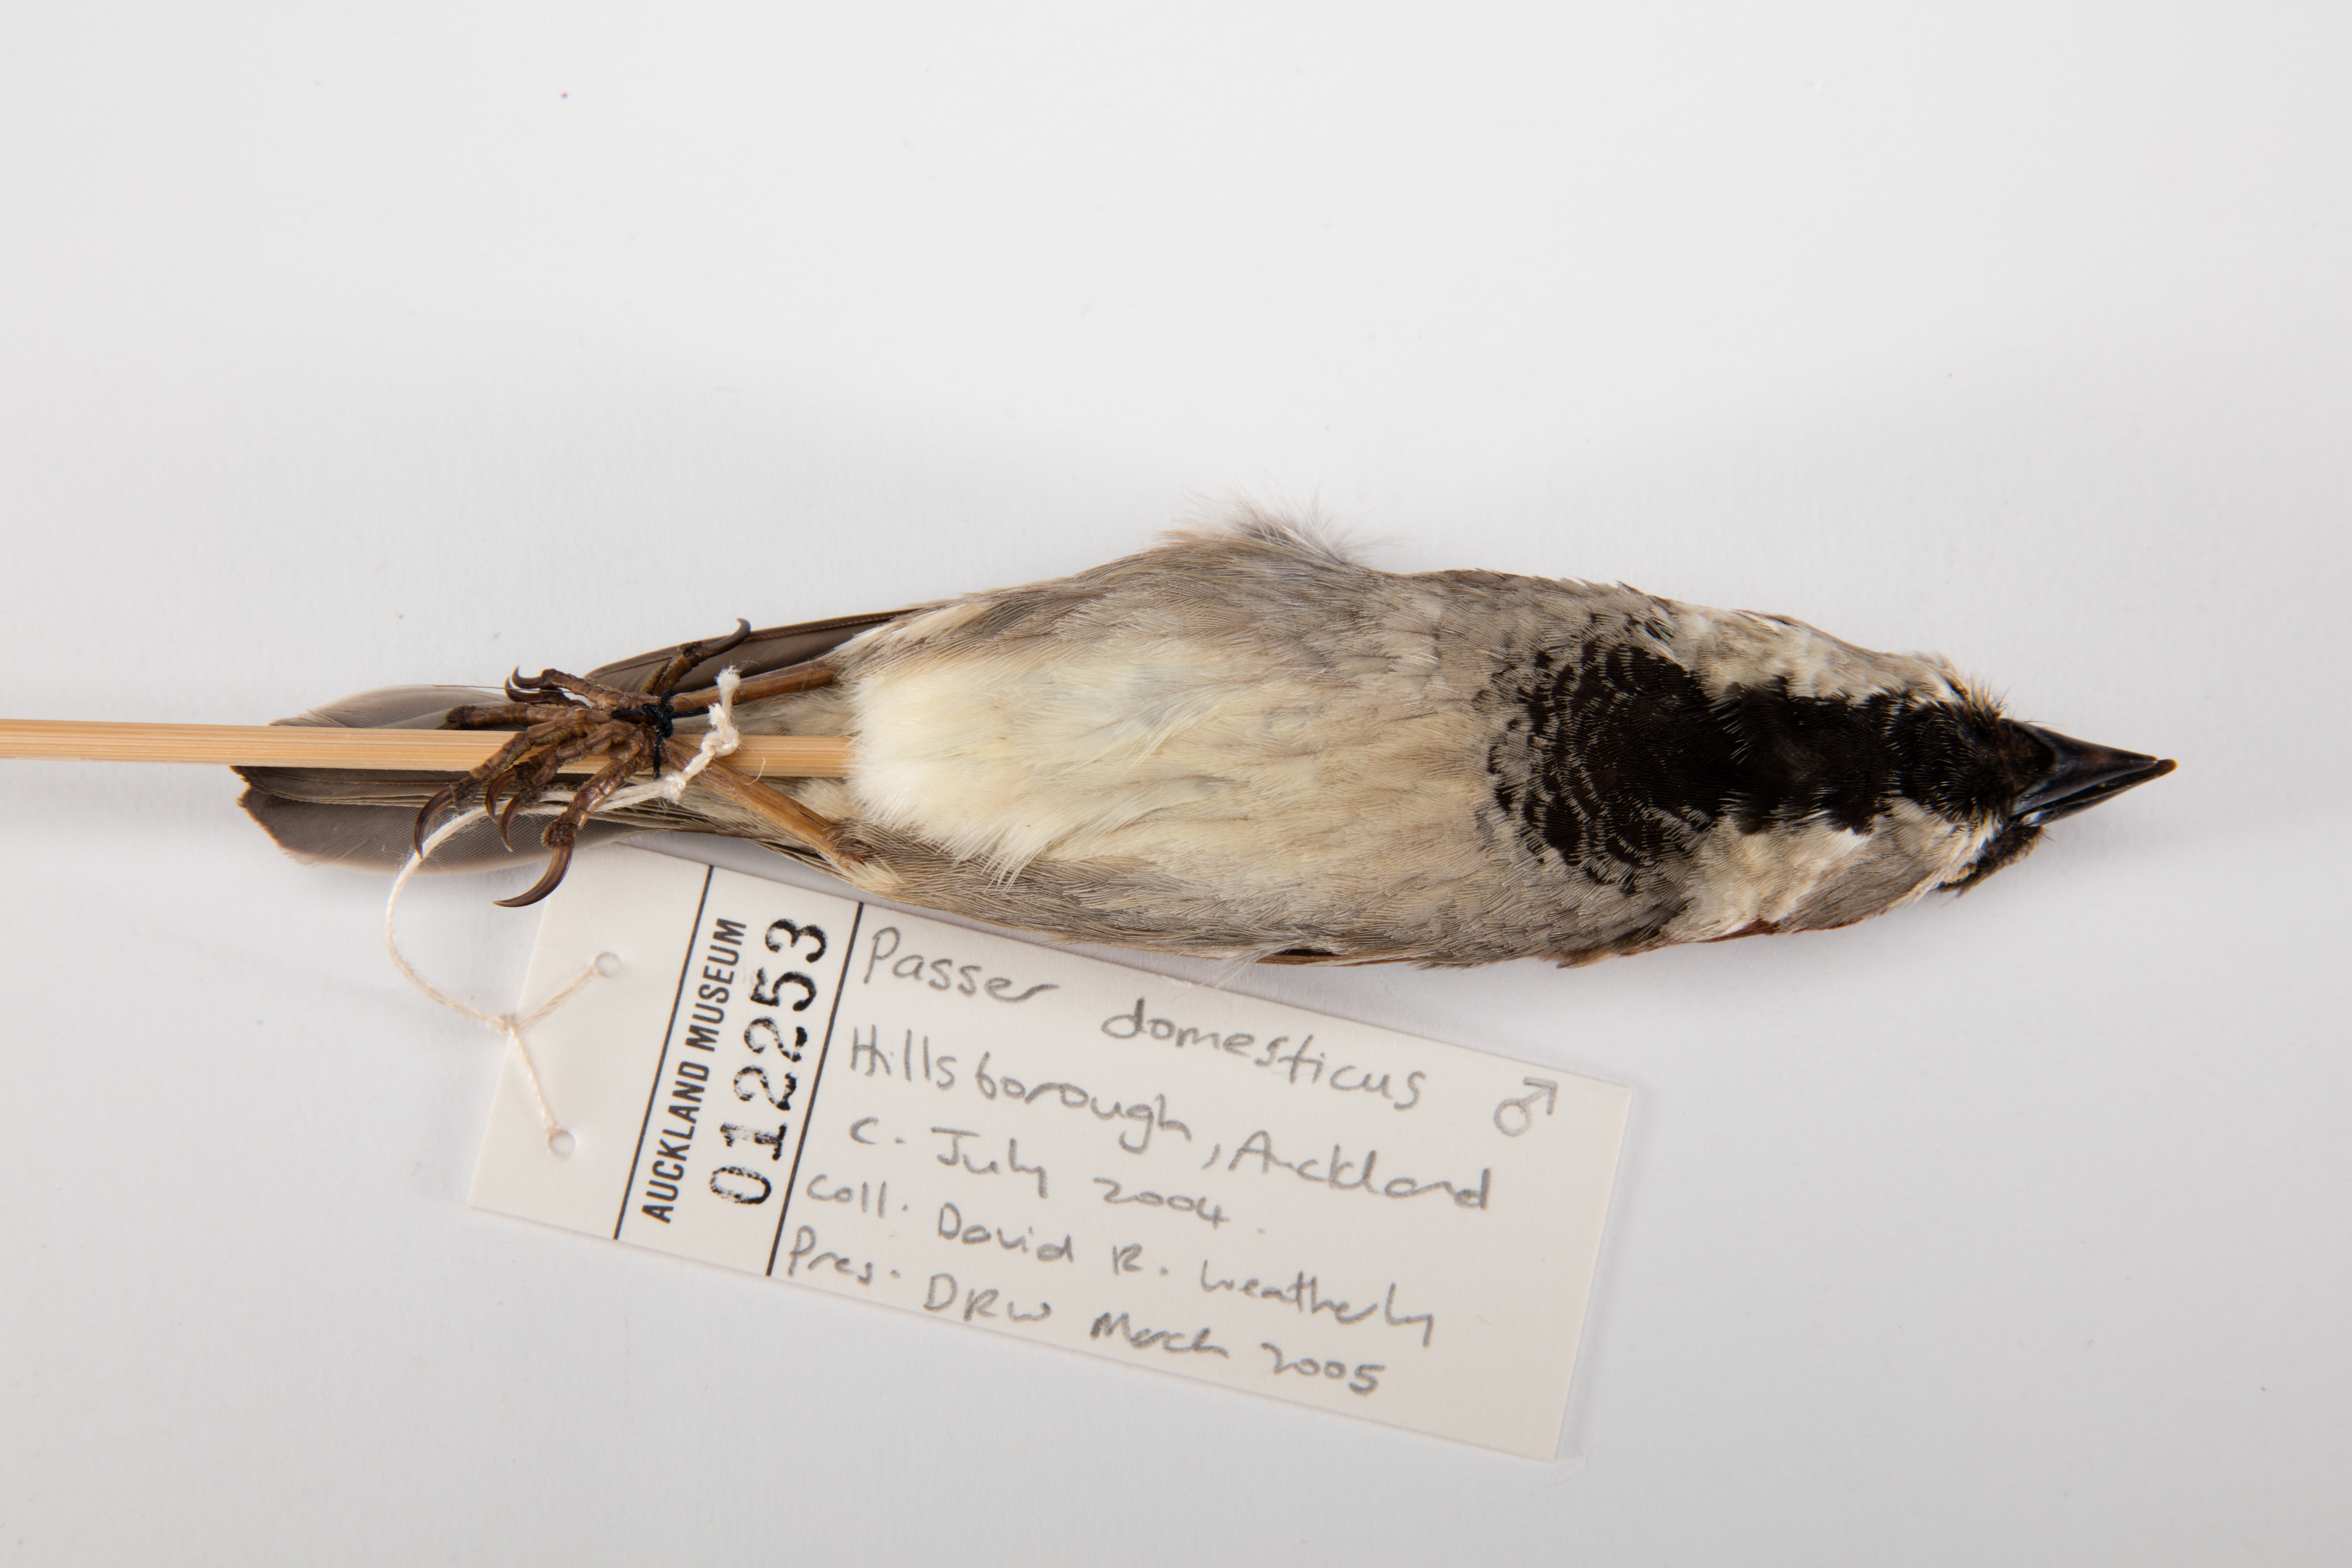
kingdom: Animalia
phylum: Chordata
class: Aves
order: Passeriformes
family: Passeridae
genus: Passer
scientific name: Passer domesticus
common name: House sparrow
